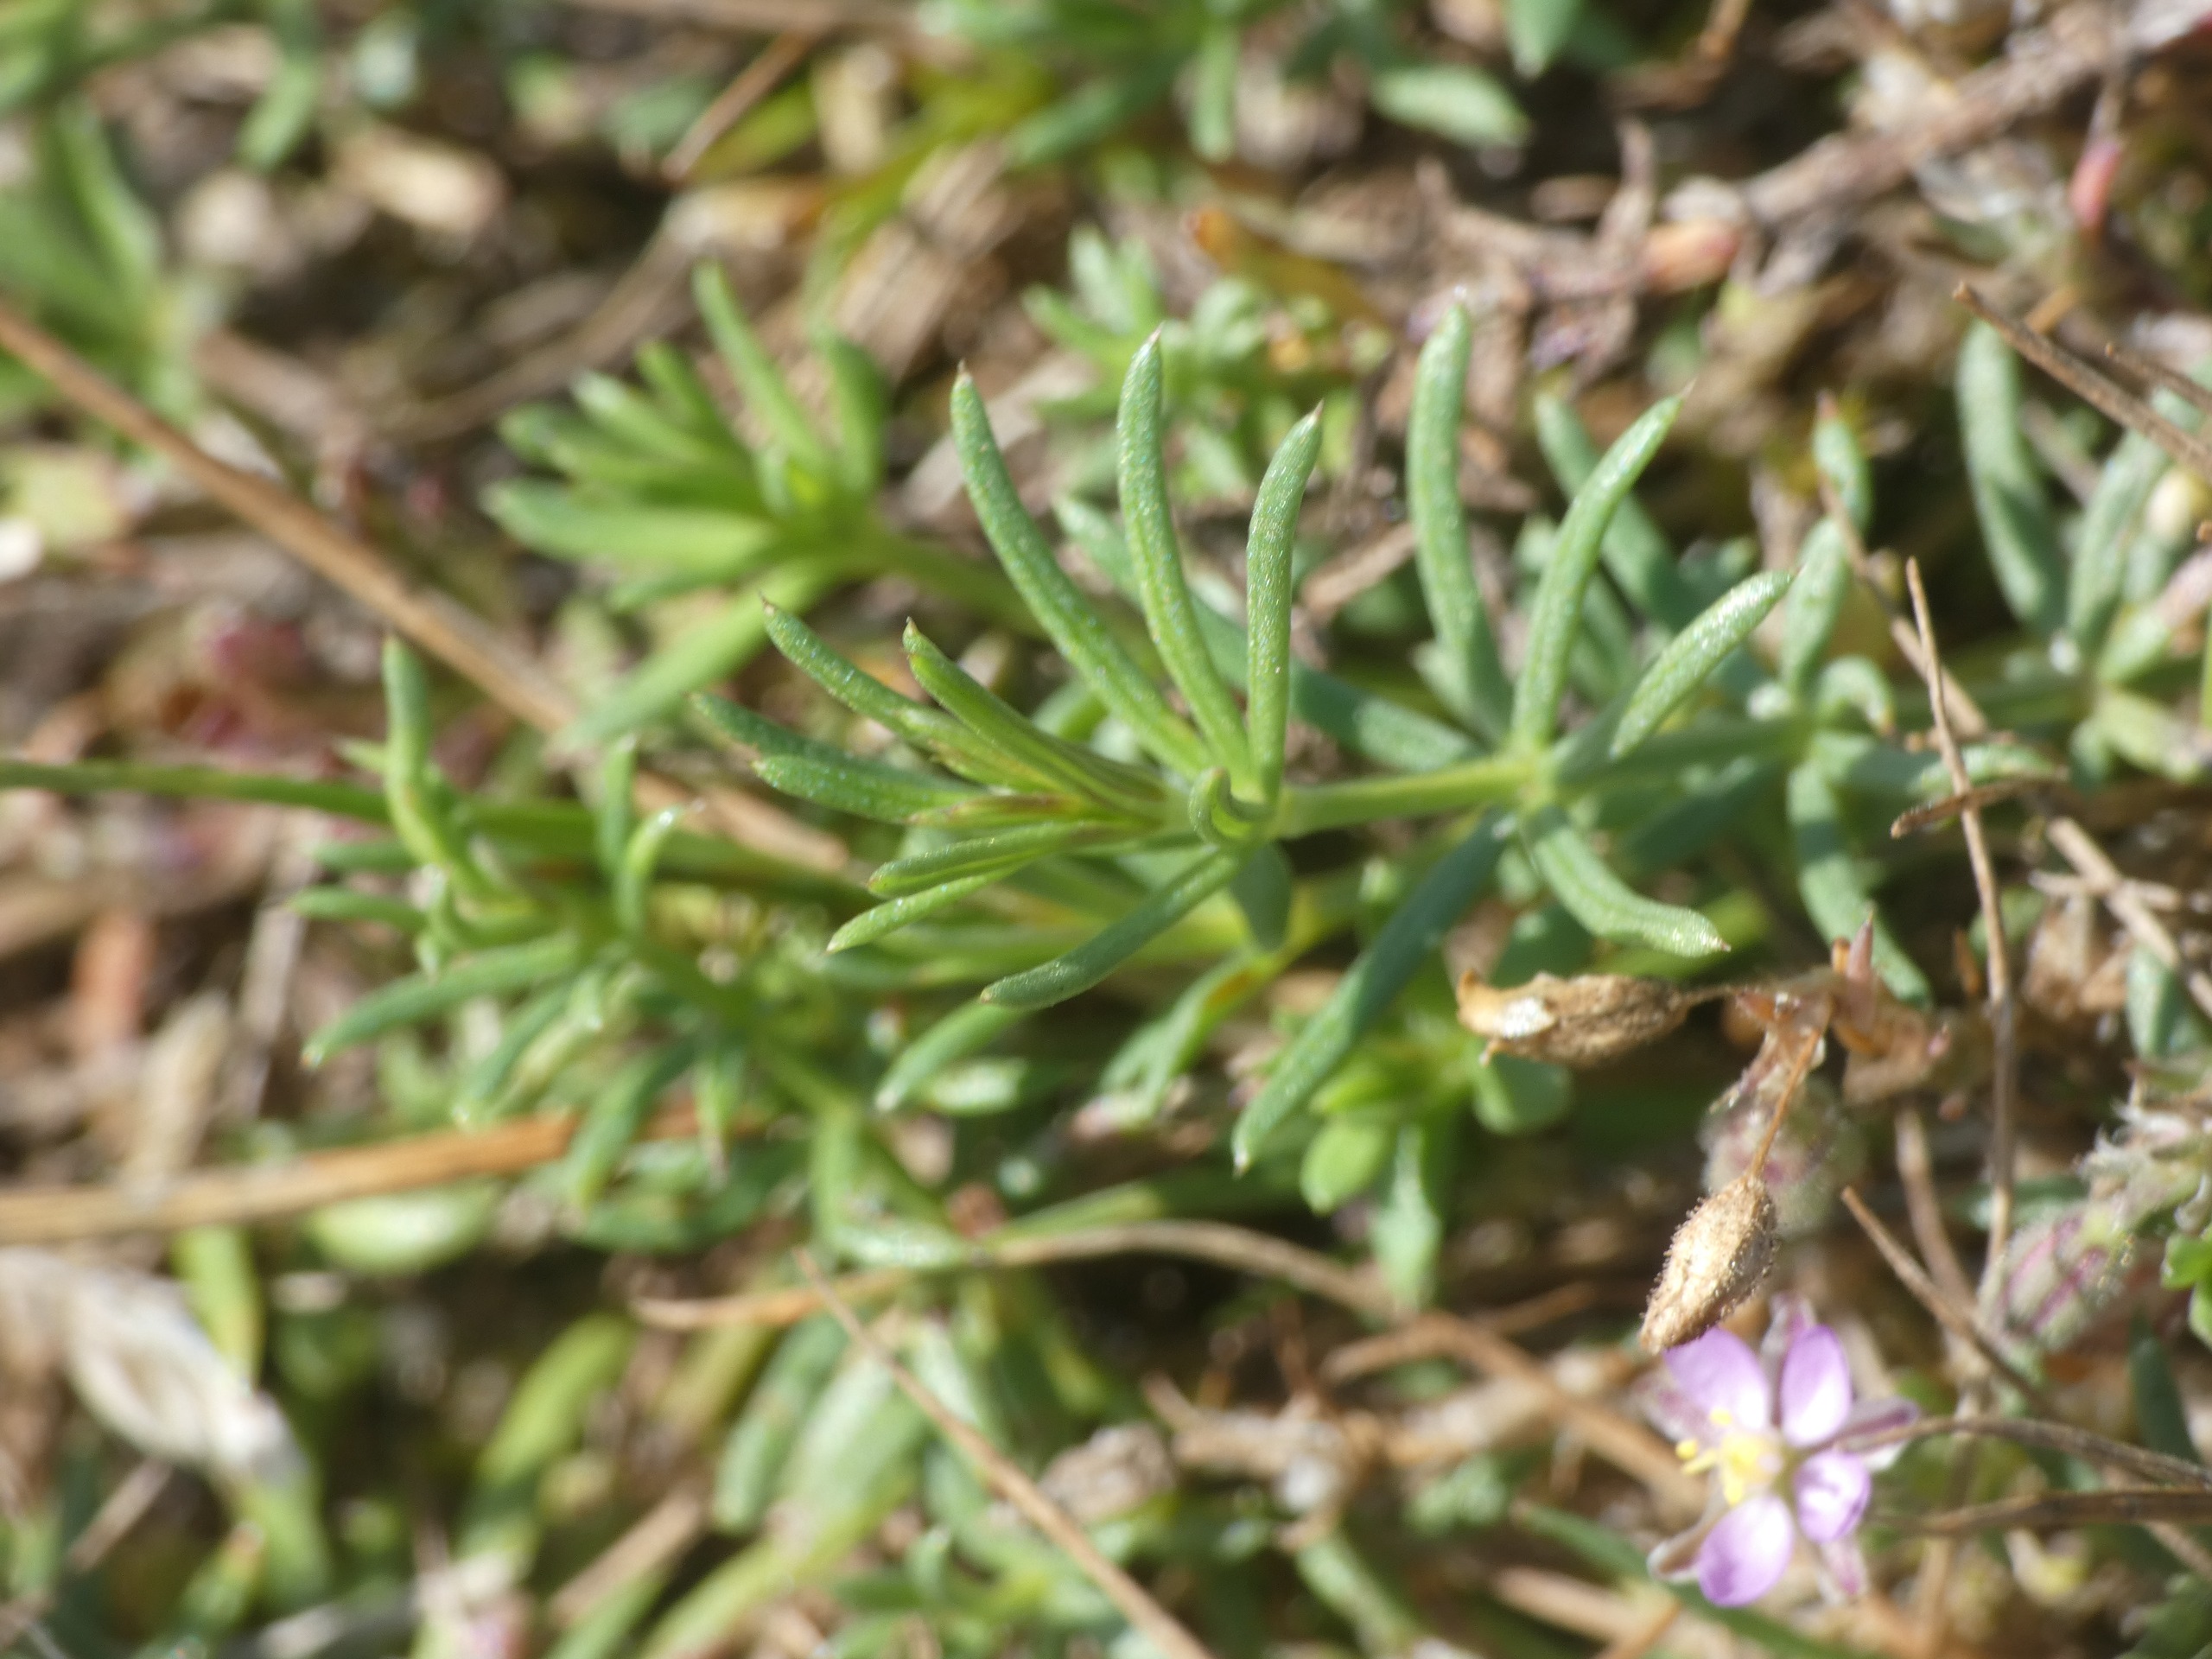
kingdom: Plantae
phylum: Tracheophyta
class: Magnoliopsida
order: Caryophyllales
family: Caryophyllaceae
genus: Spergularia
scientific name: Spergularia rubra
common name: Mark-hindeknæ
